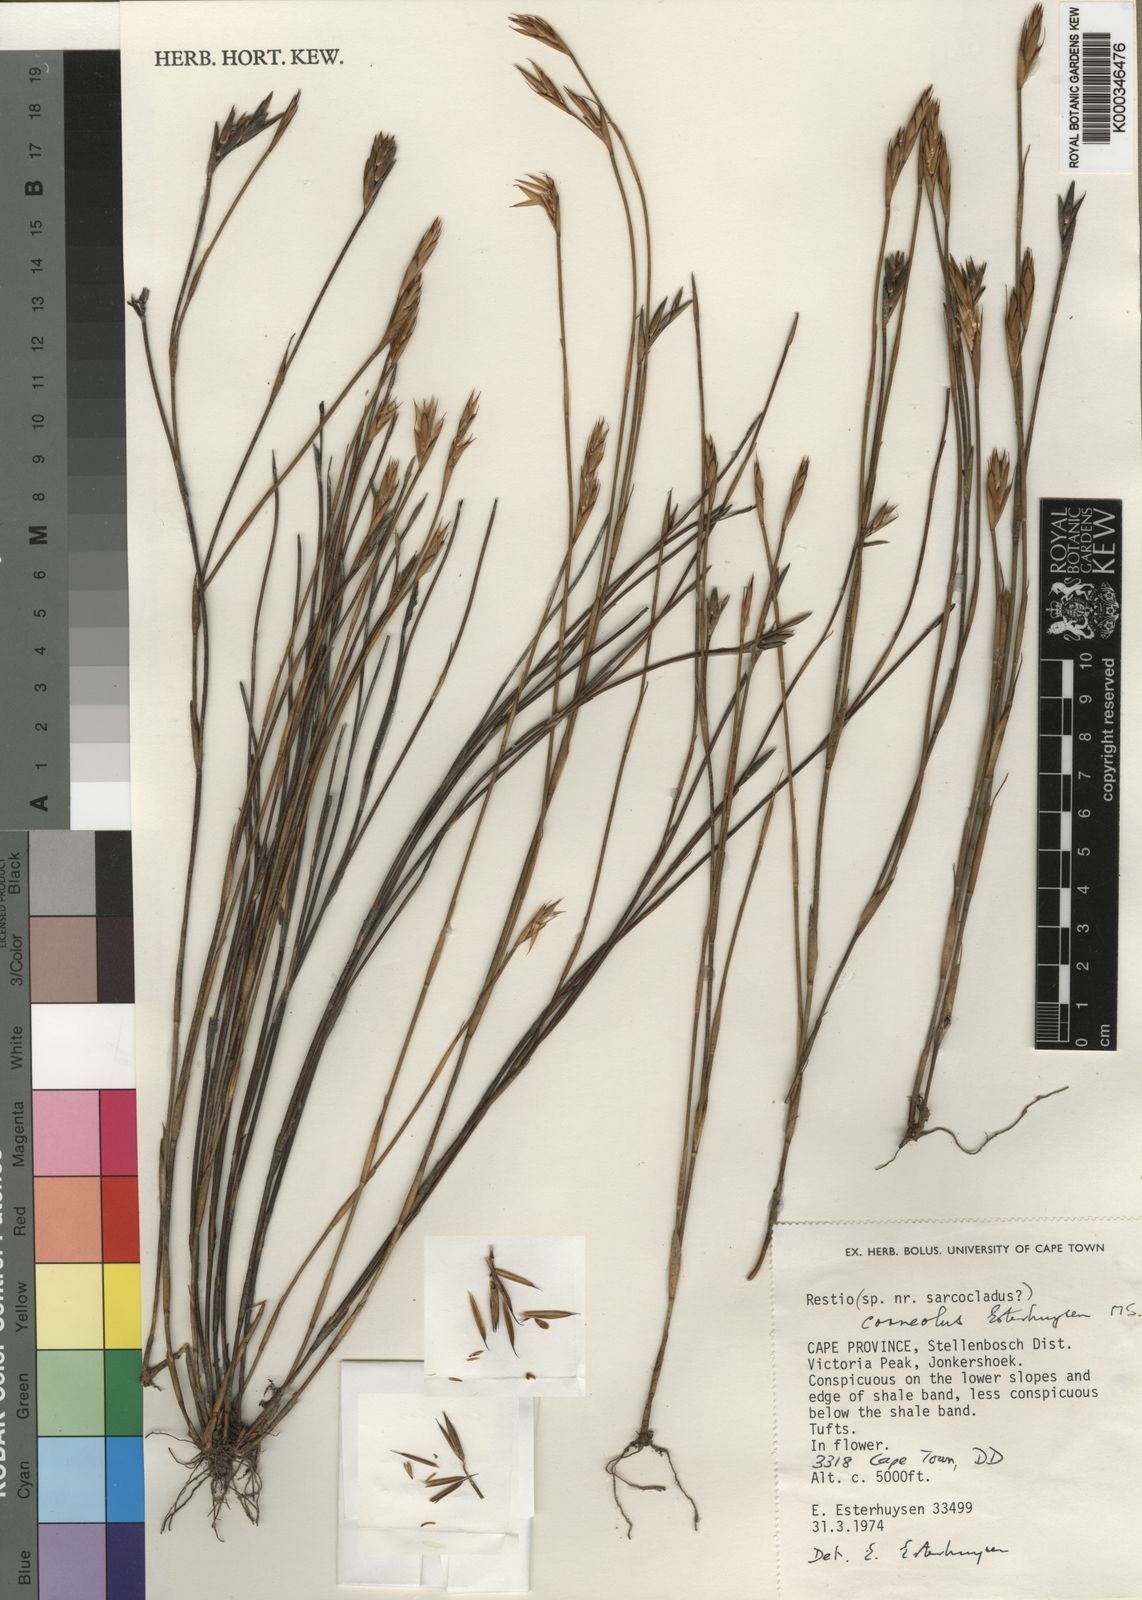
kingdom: Plantae
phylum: Tracheophyta
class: Liliopsida
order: Poales
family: Restionaceae
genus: Restio
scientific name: Restio corneolus
